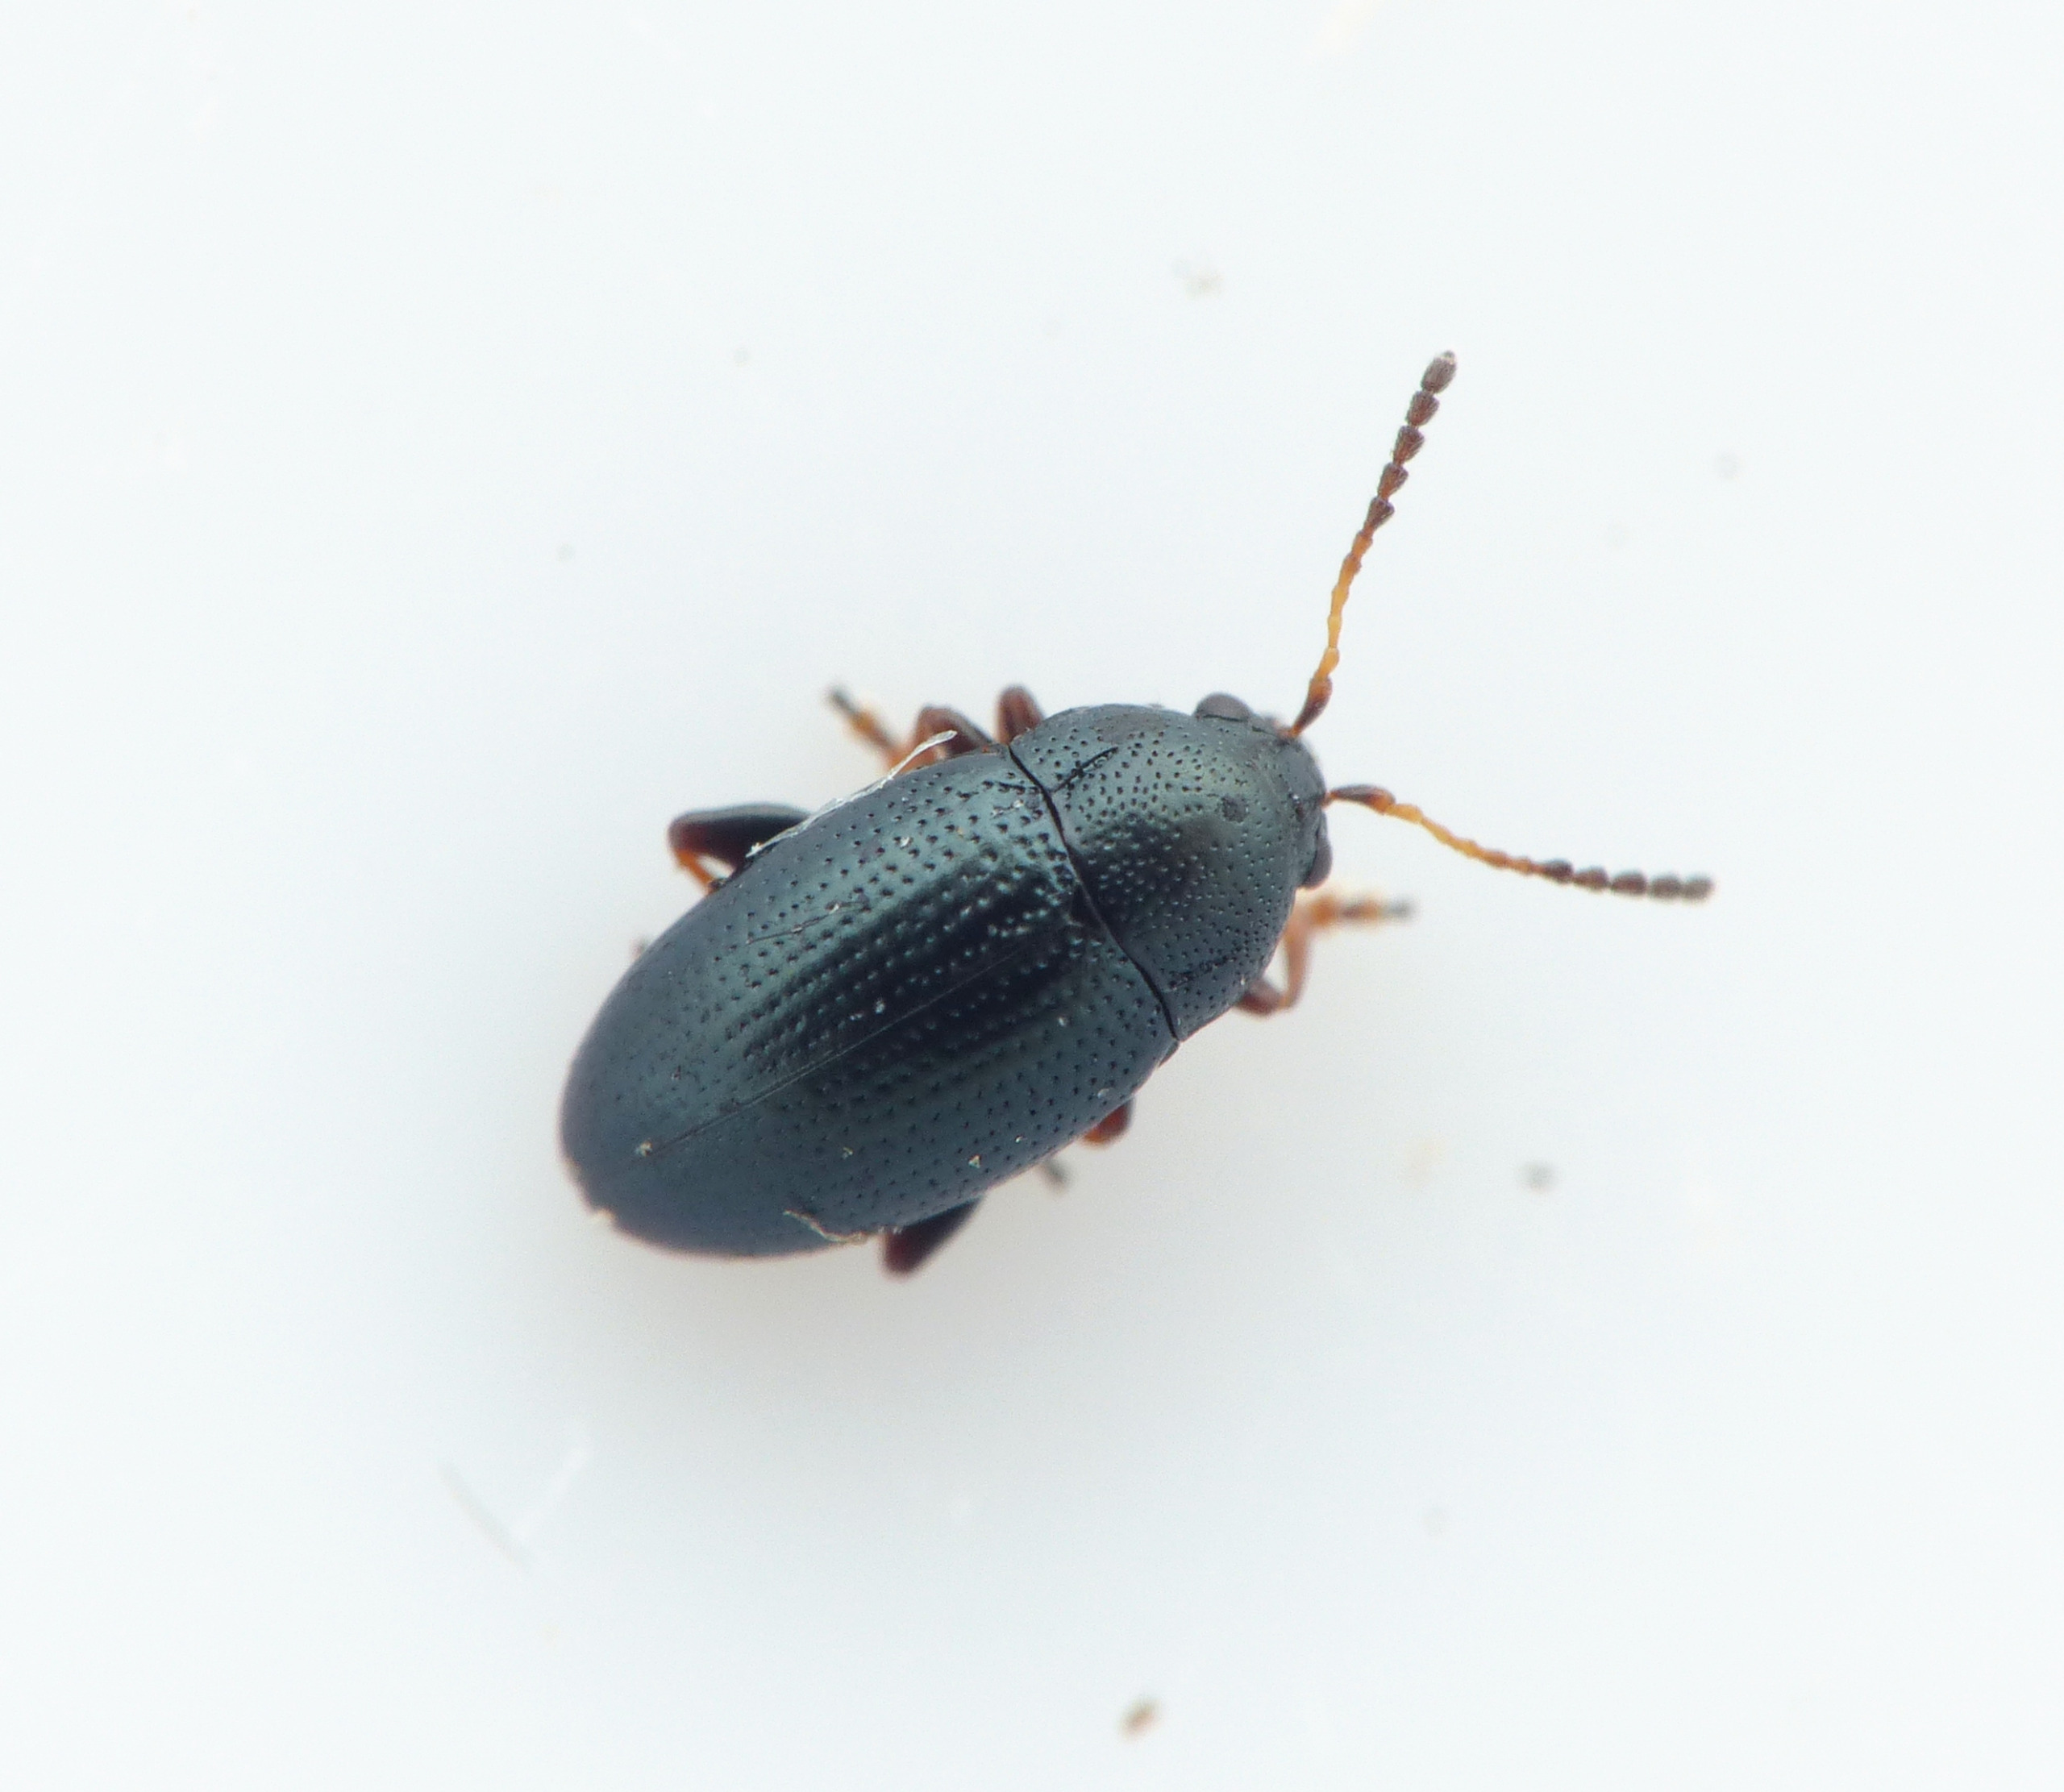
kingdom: Animalia
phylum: Arthropoda
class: Insecta
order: Coleoptera
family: Chrysomelidae
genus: Mantura
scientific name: Mantura obtusata
